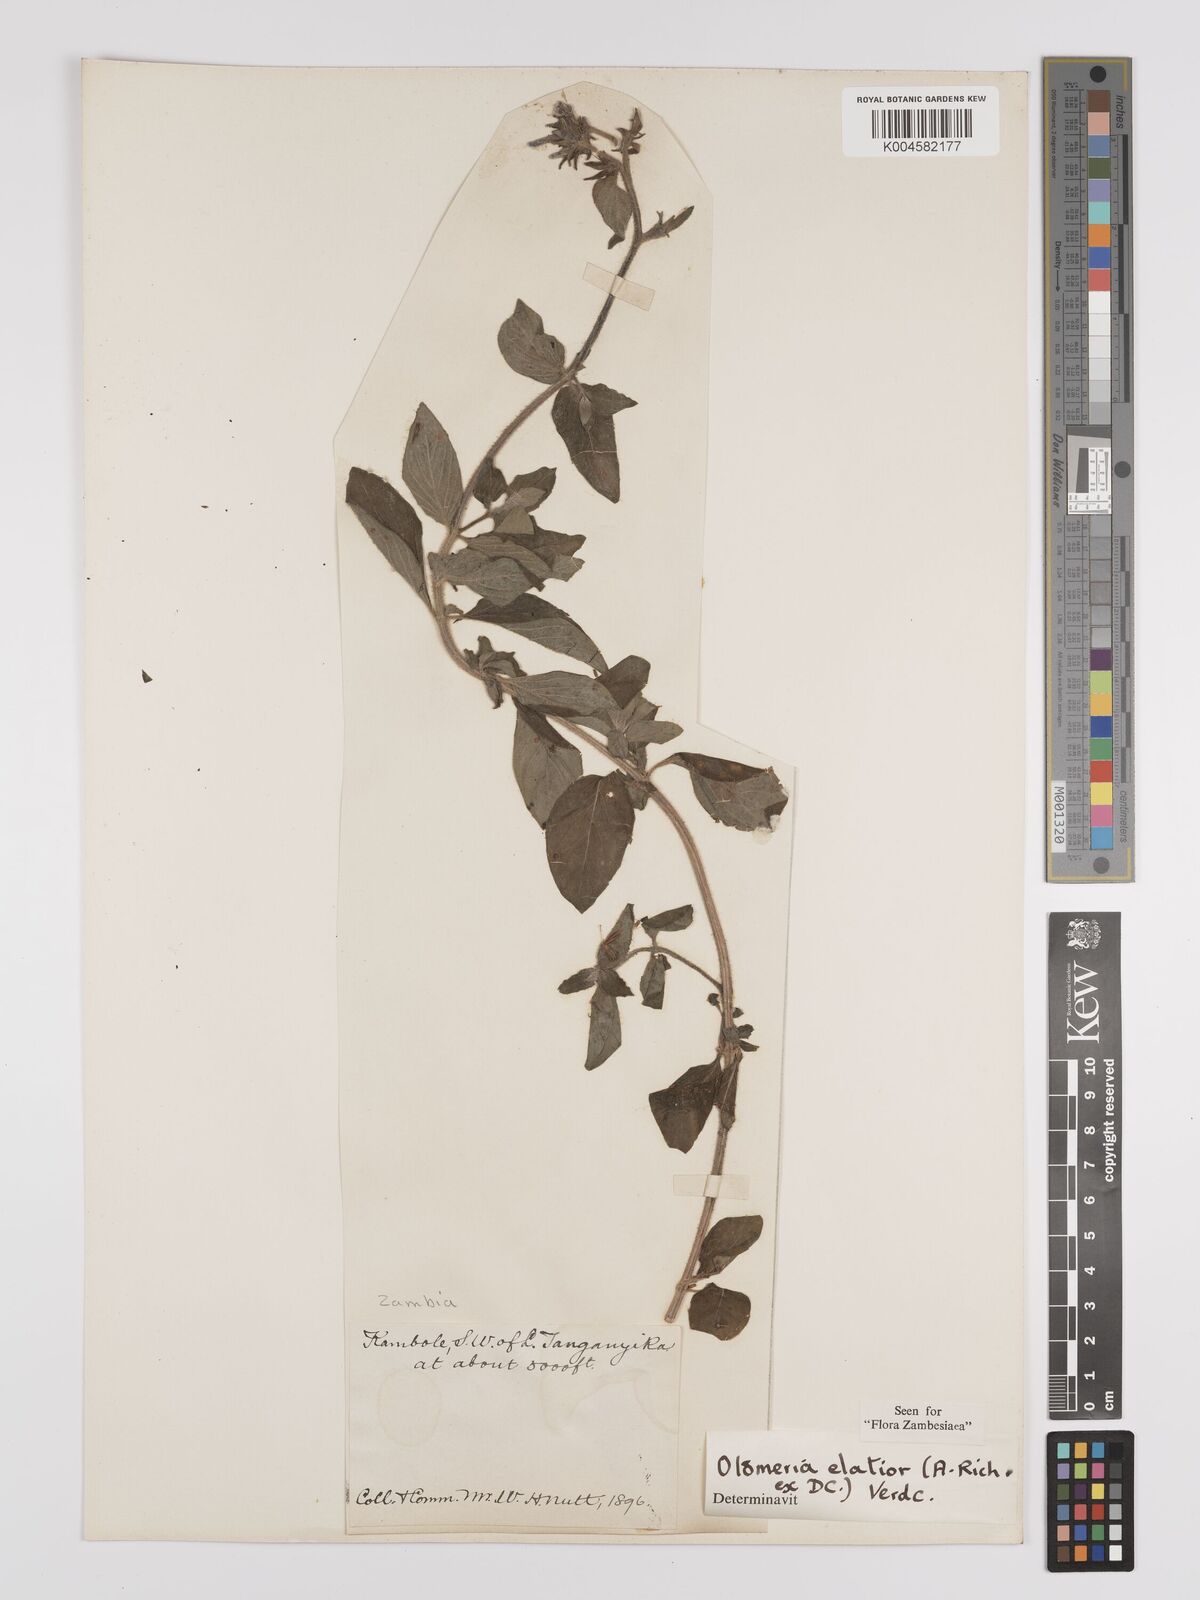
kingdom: Plantae
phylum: Tracheophyta
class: Magnoliopsida
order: Gentianales
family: Rubiaceae
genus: Otomeria
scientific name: Otomeria elatior
